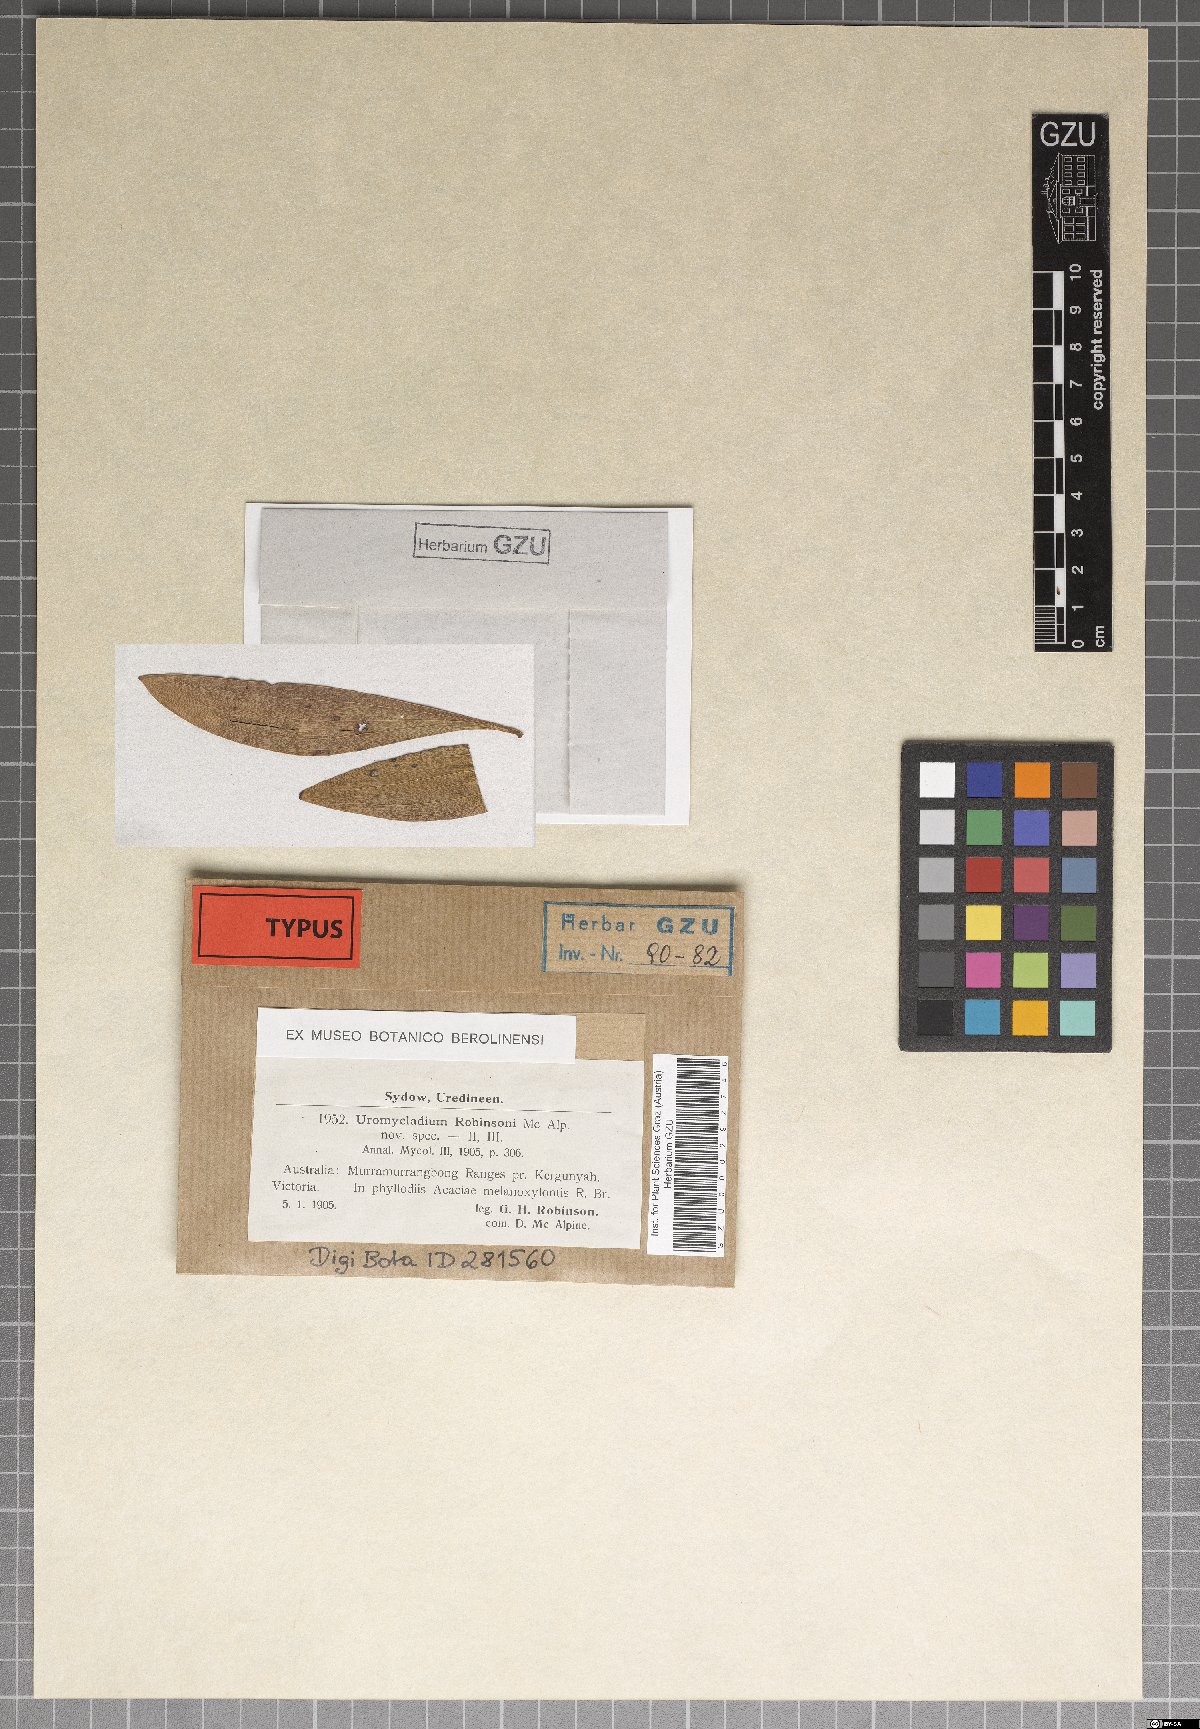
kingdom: Fungi
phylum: Basidiomycota
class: Pucciniomycetes
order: Pucciniales
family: Uromycladiaceae
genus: Uromycladium
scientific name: Uromycladium robinsonii
